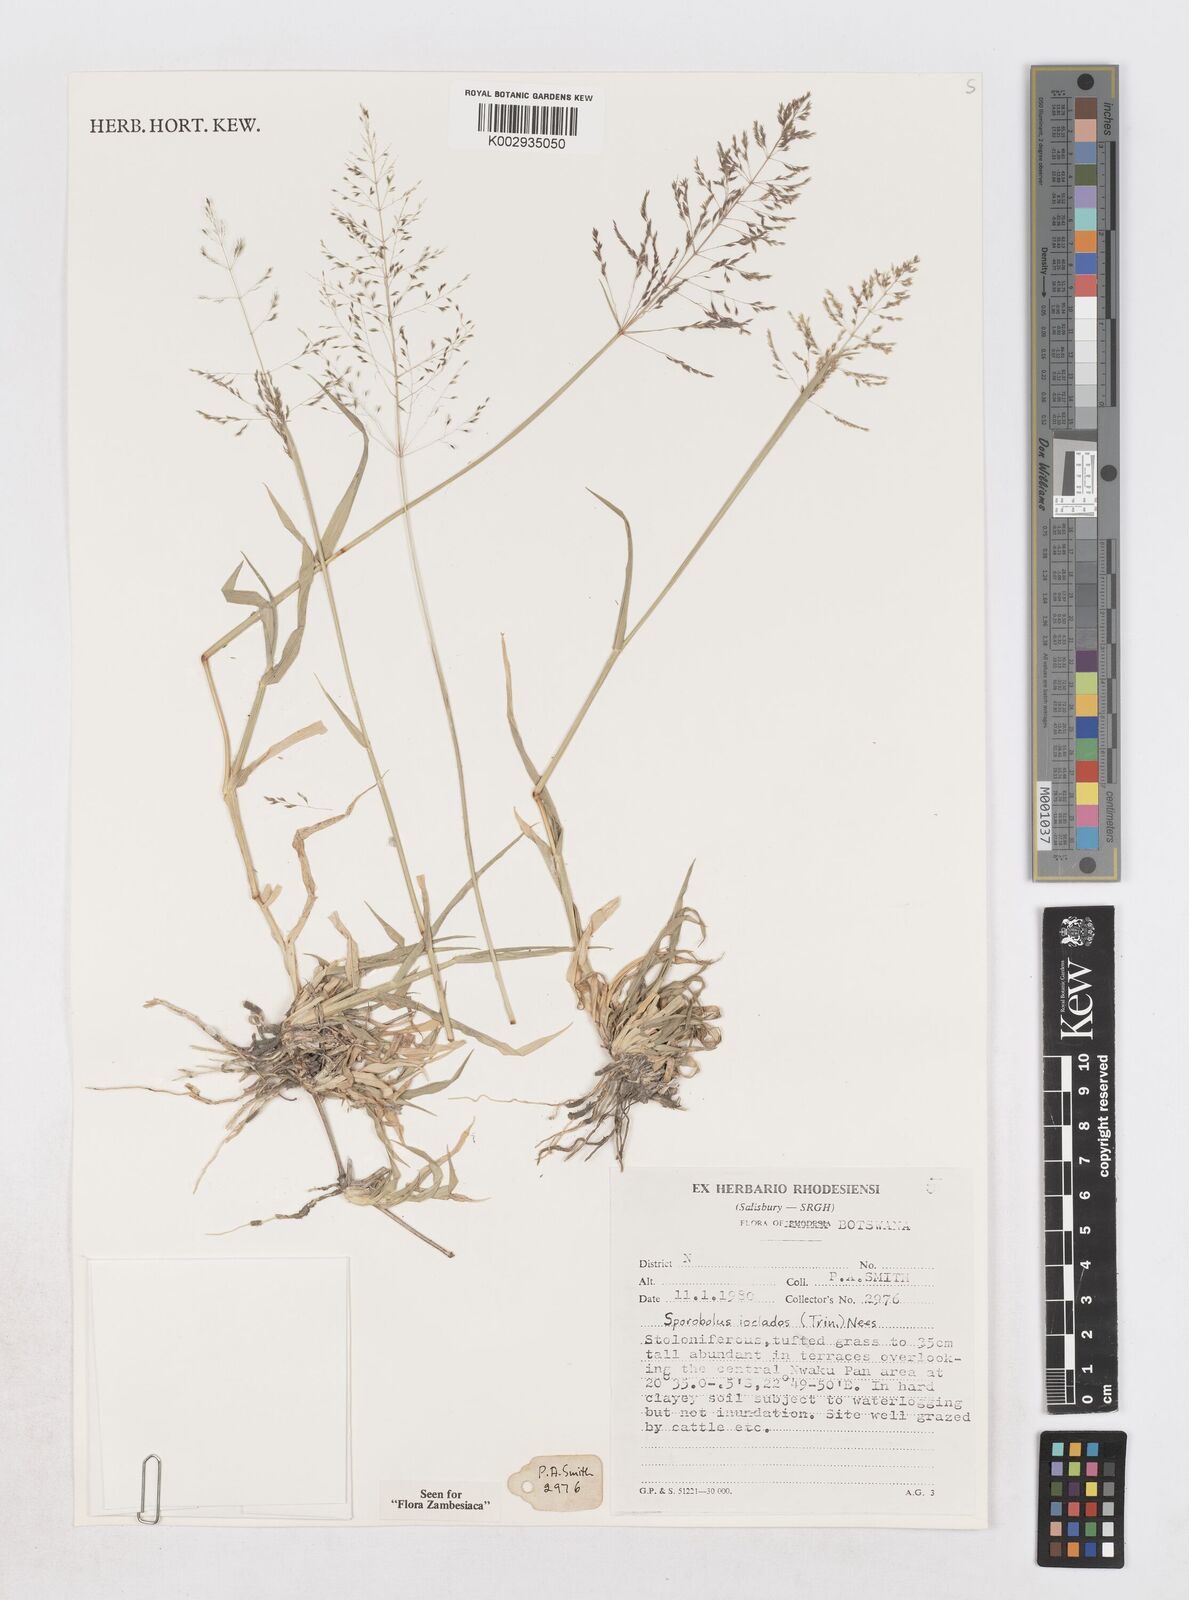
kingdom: Plantae
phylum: Tracheophyta
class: Liliopsida
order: Poales
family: Poaceae
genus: Sporobolus
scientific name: Sporobolus ioclados
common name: Pan dropseed
